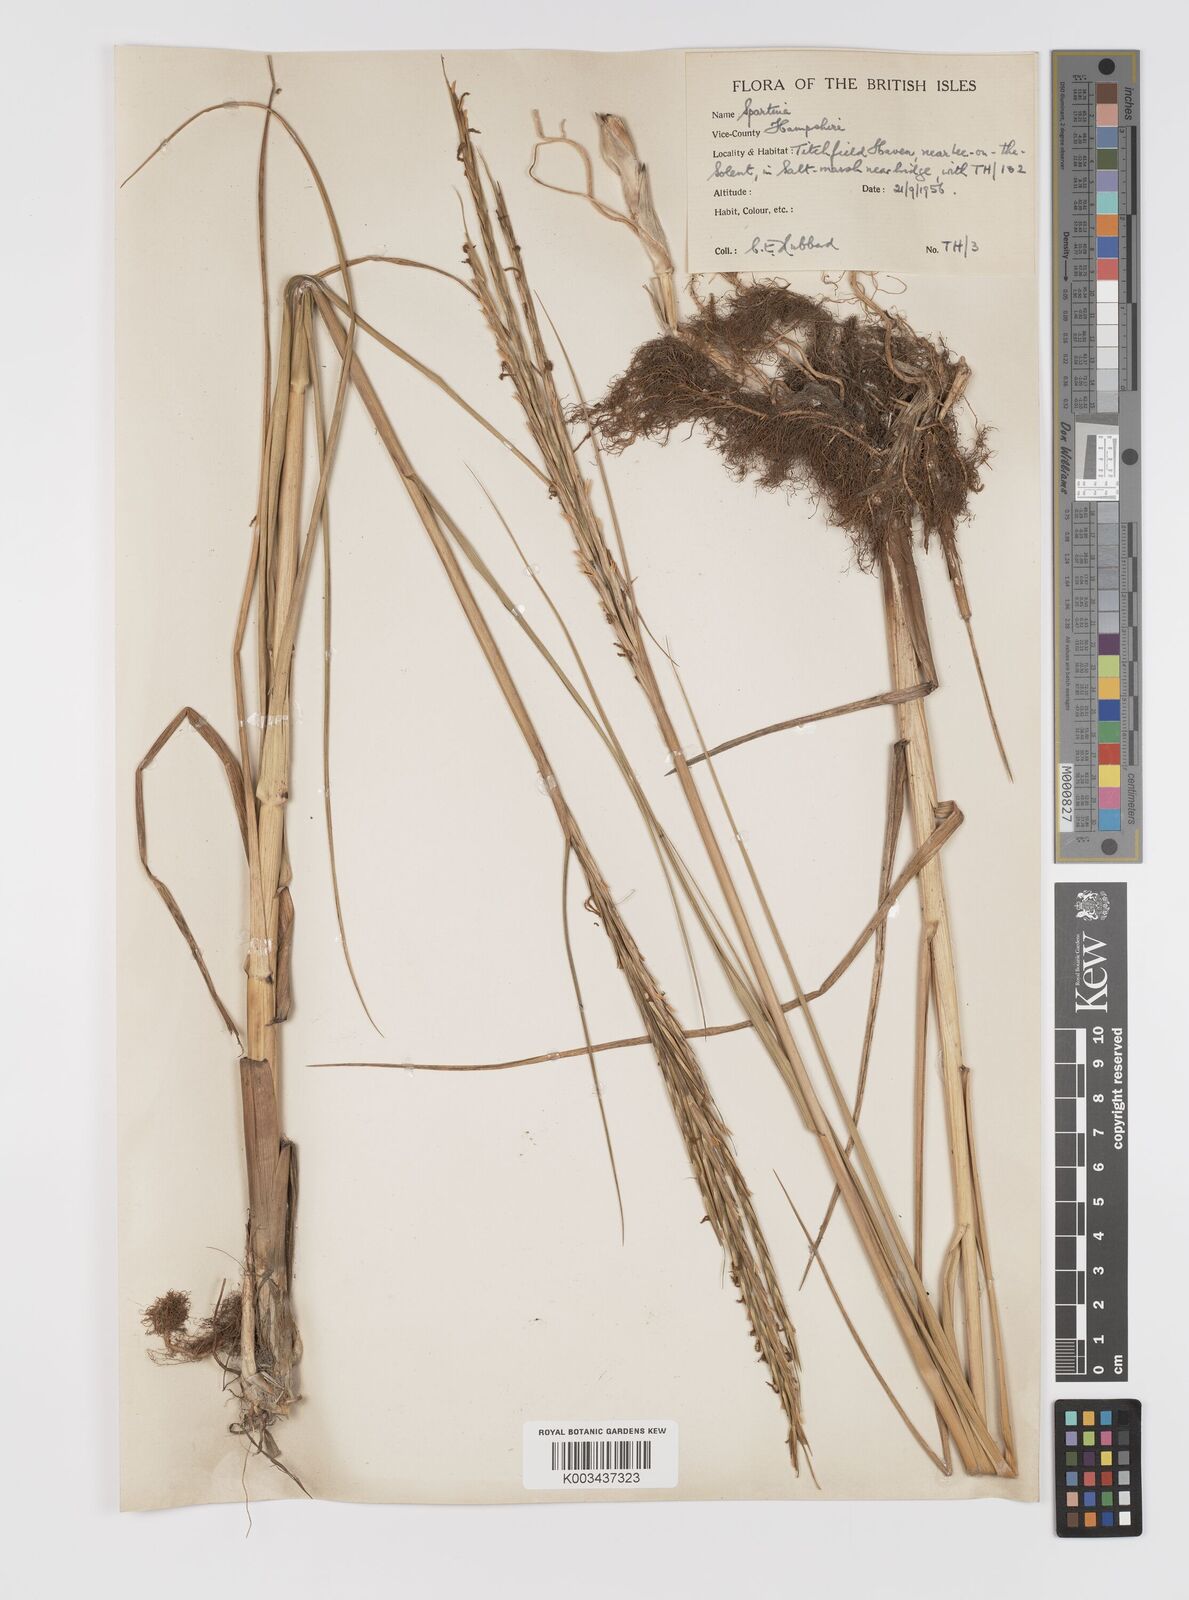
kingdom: Plantae
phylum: Tracheophyta
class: Liliopsida
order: Poales
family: Poaceae
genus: Sporobolus
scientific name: Sporobolus townsendii
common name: Townsend's cordgrass
